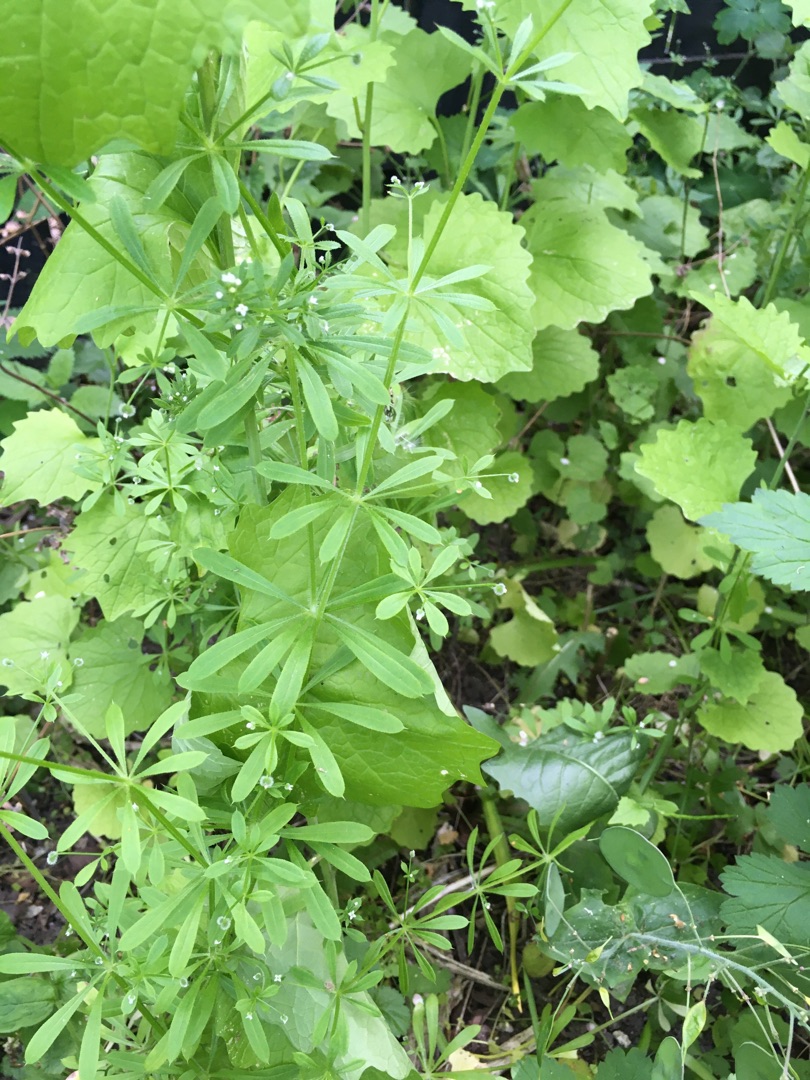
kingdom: Plantae
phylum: Tracheophyta
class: Magnoliopsida
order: Gentianales
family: Rubiaceae
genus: Galium
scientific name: Galium aparine
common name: Burre-snerre
